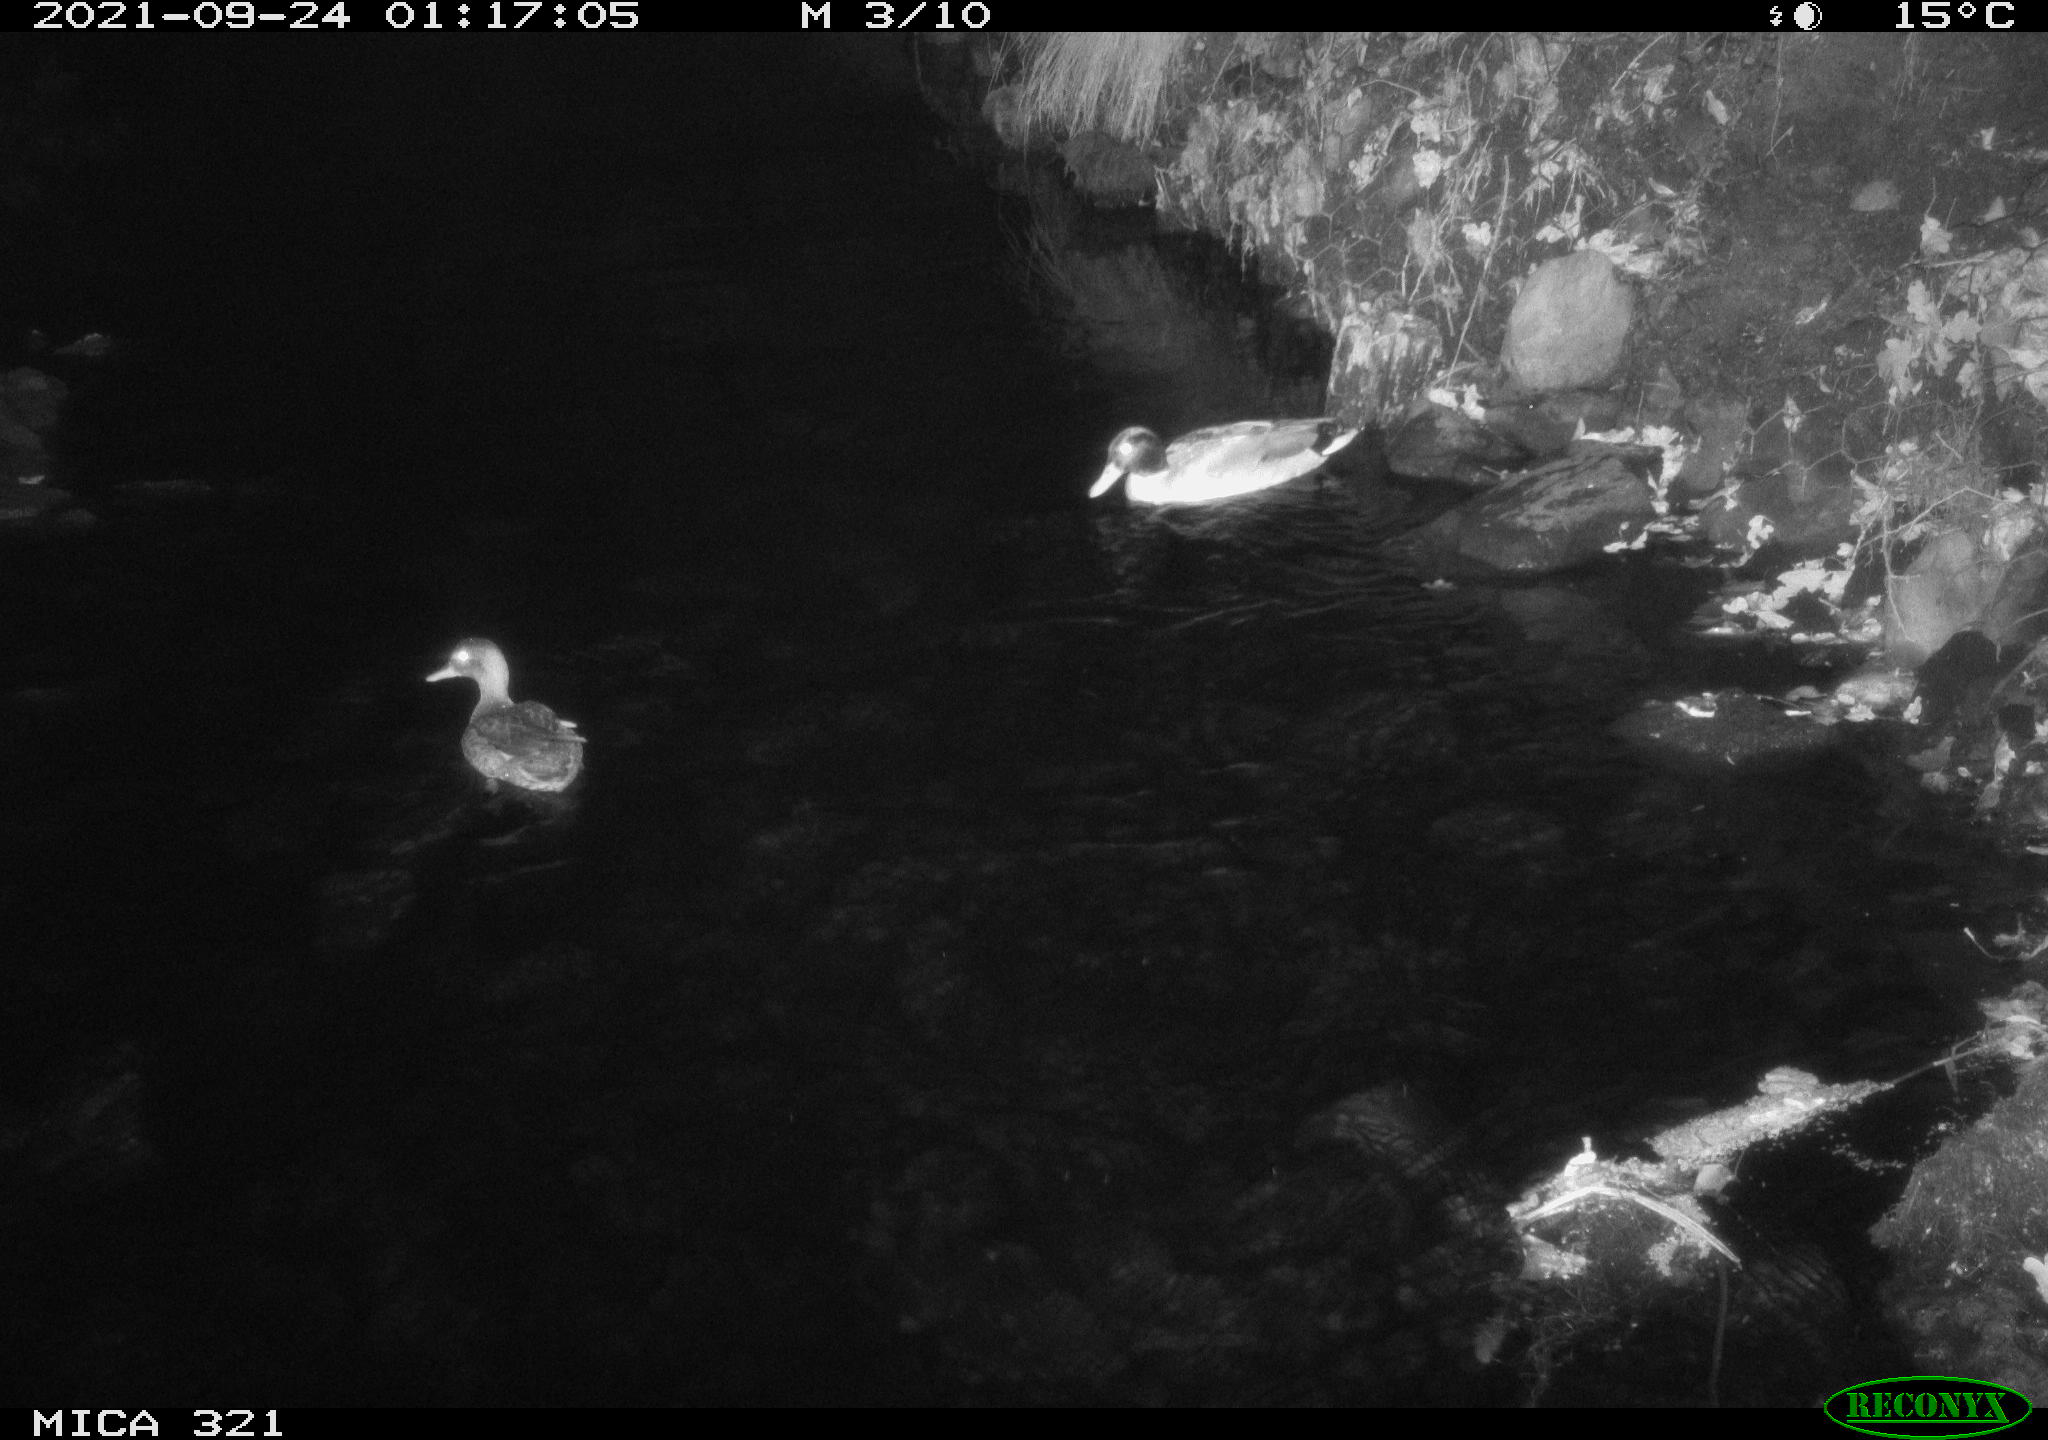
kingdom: Animalia
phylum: Chordata
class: Aves
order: Anseriformes
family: Anatidae
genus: Anas
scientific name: Anas platyrhynchos
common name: Mallard
